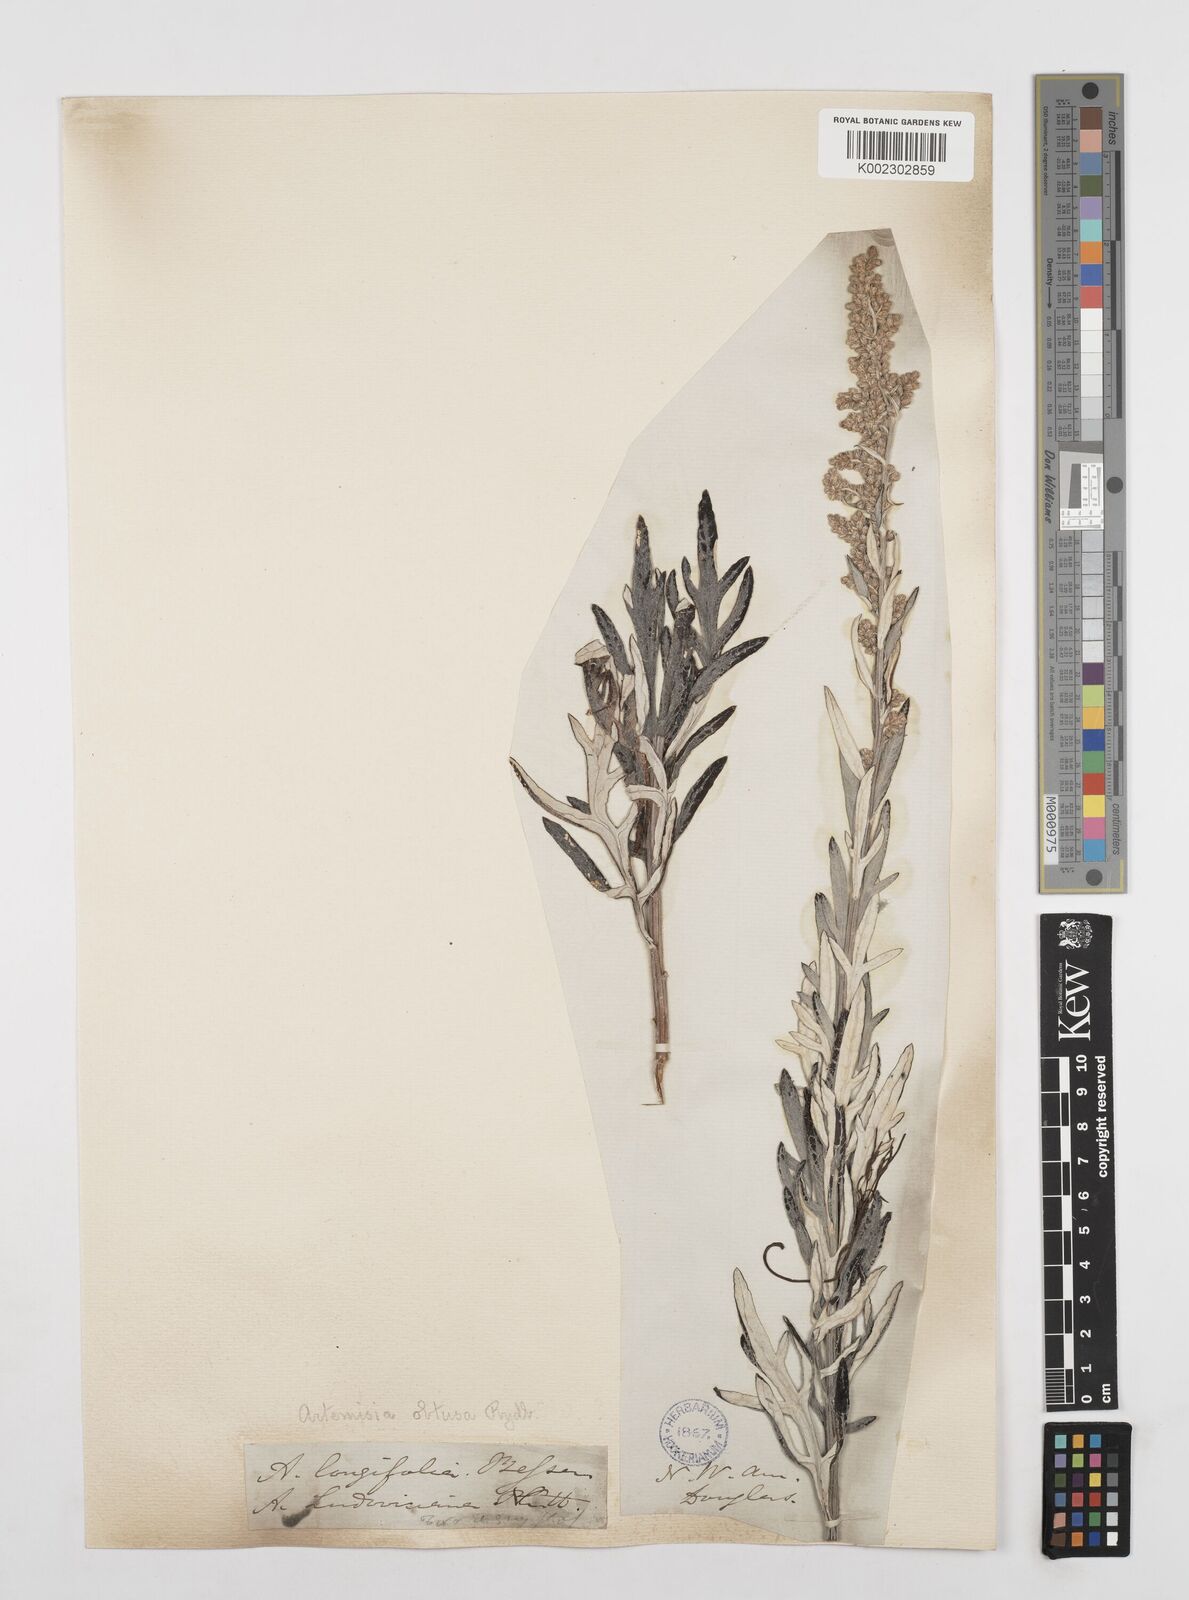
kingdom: Plantae
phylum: Tracheophyta
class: Magnoliopsida
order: Asterales
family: Asteraceae
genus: Artemisia
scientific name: Artemisia ludoviciana
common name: Western mugwort
